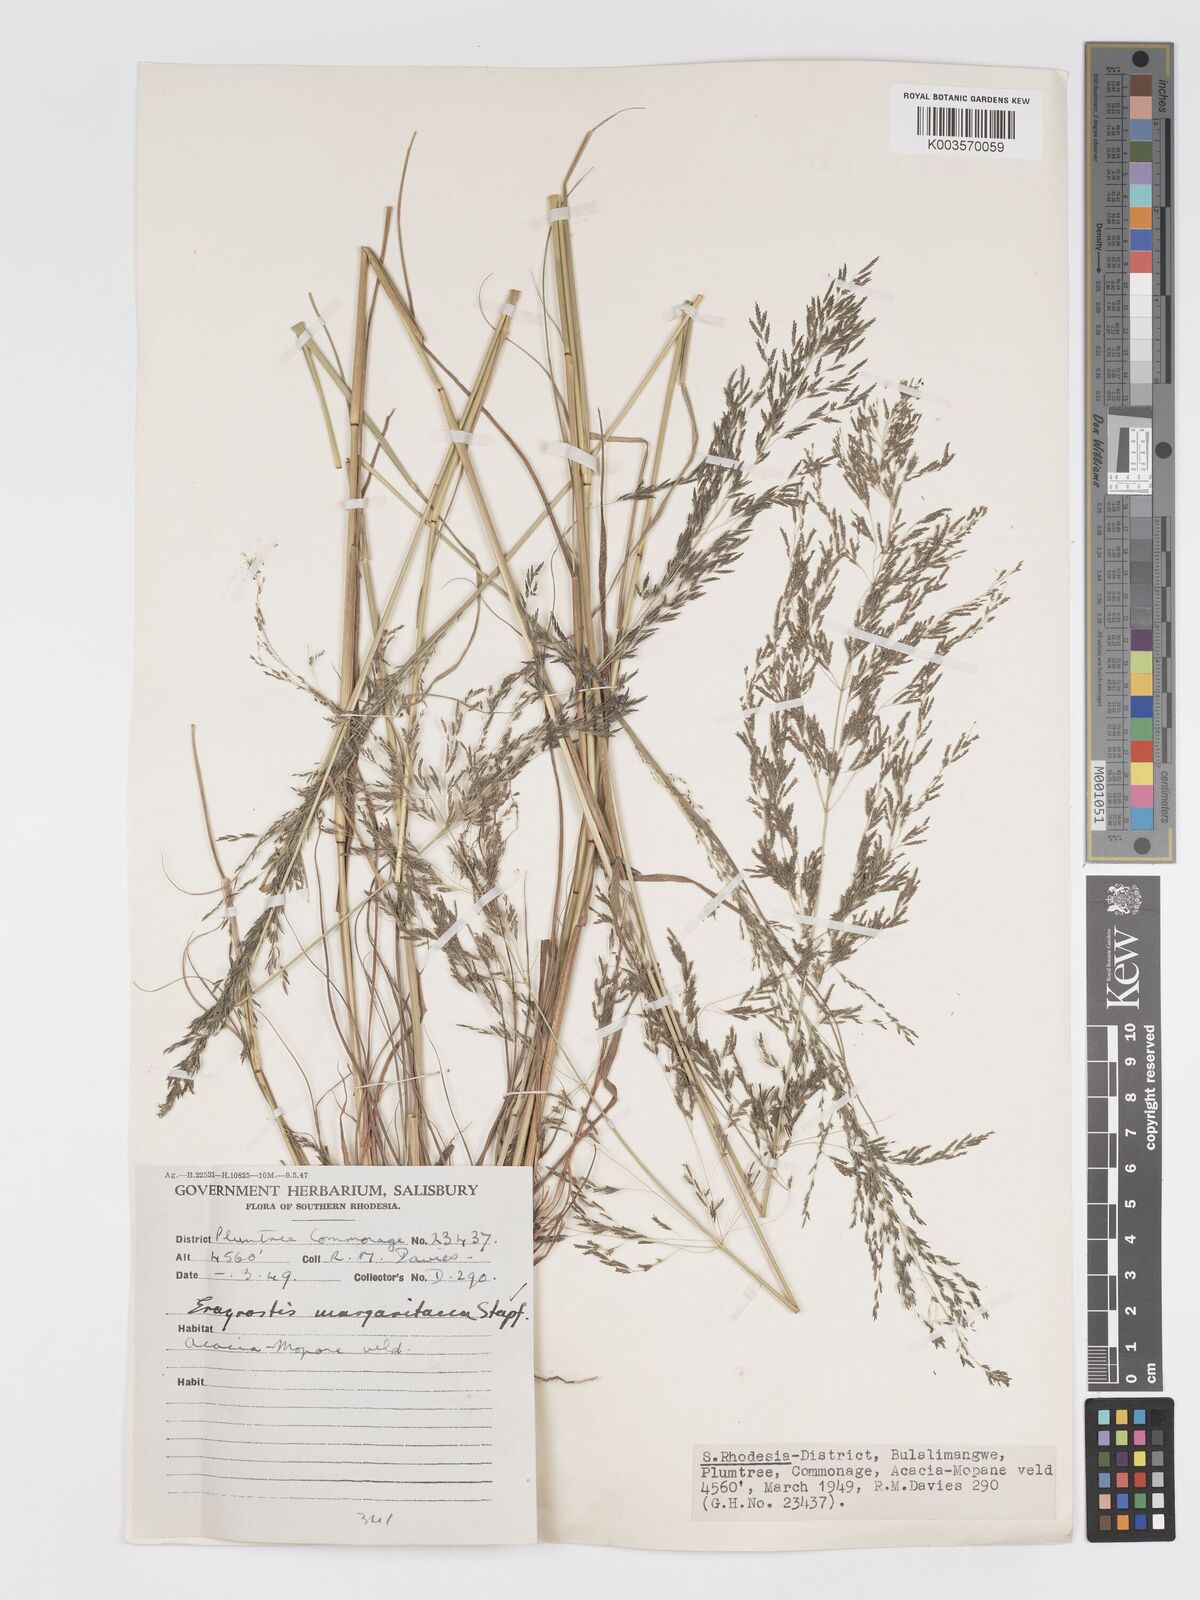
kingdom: Plantae
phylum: Tracheophyta
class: Liliopsida
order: Poales
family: Poaceae
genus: Eragrostis
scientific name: Eragrostis rotifer
